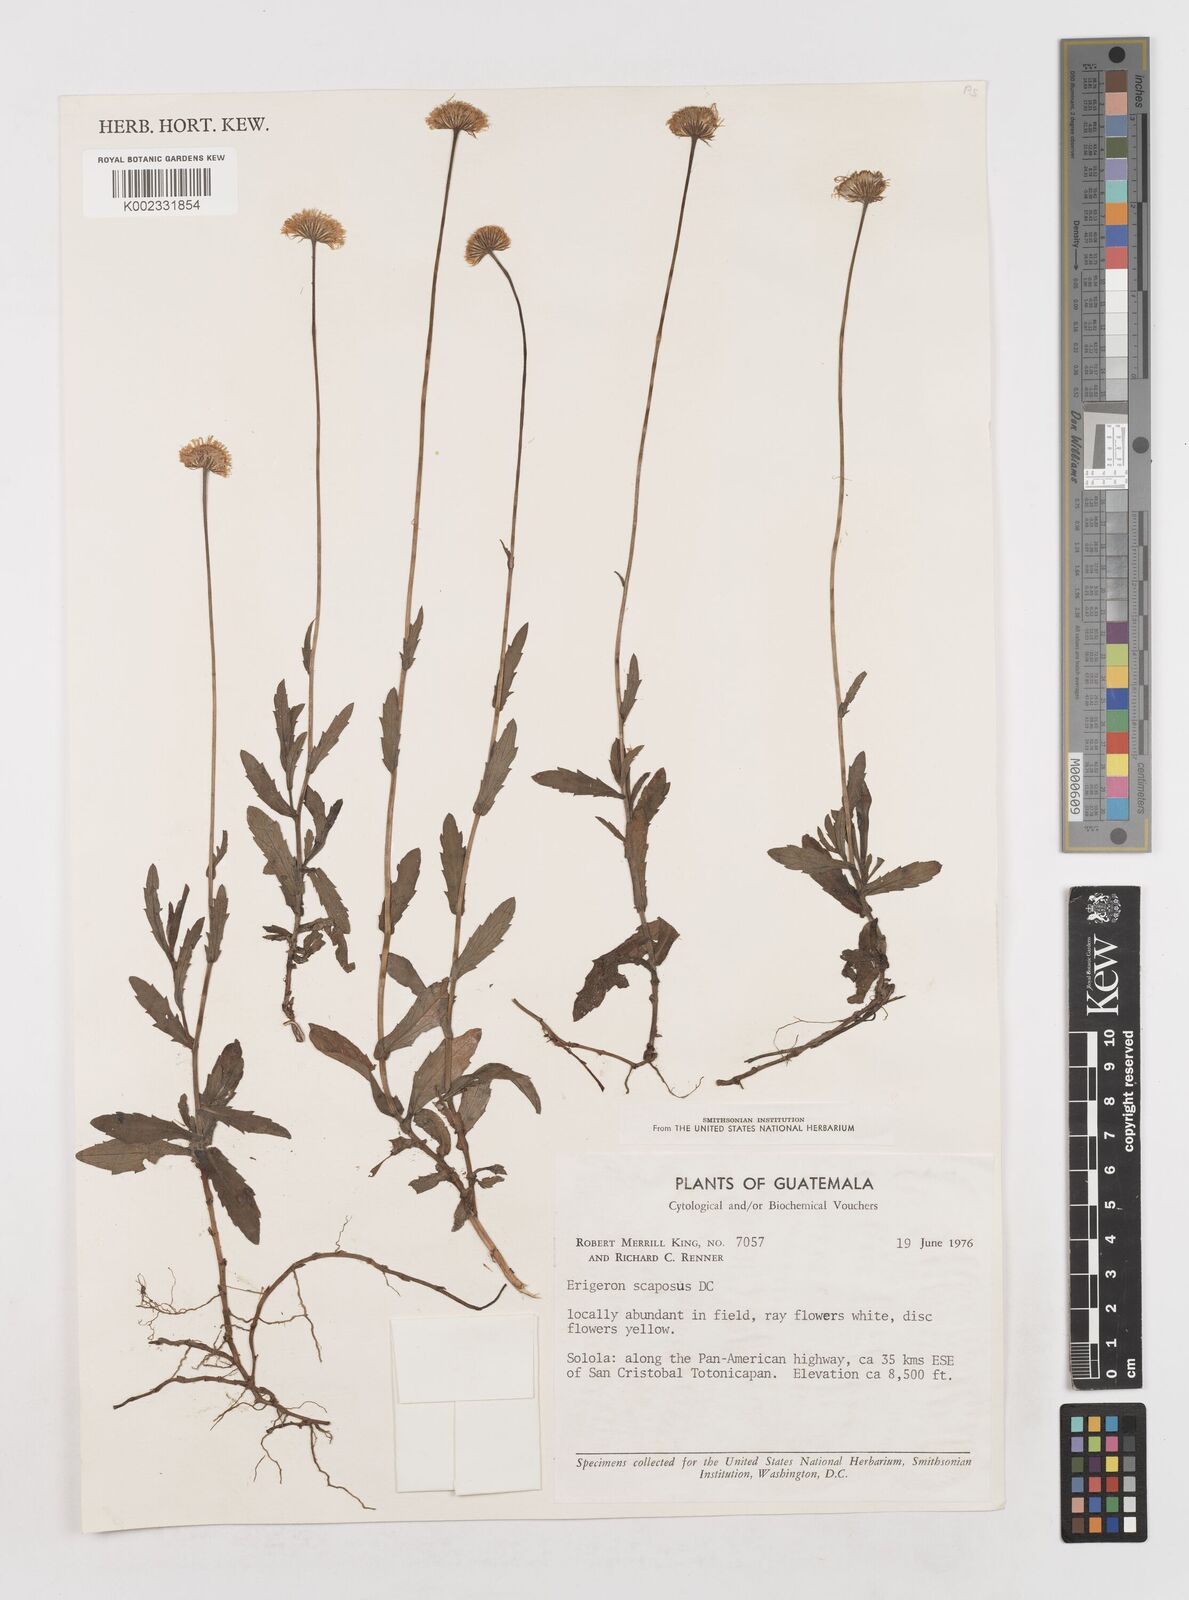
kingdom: Plantae
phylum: Tracheophyta
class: Magnoliopsida
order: Asterales
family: Asteraceae
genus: Erigeron
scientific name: Erigeron longipes
